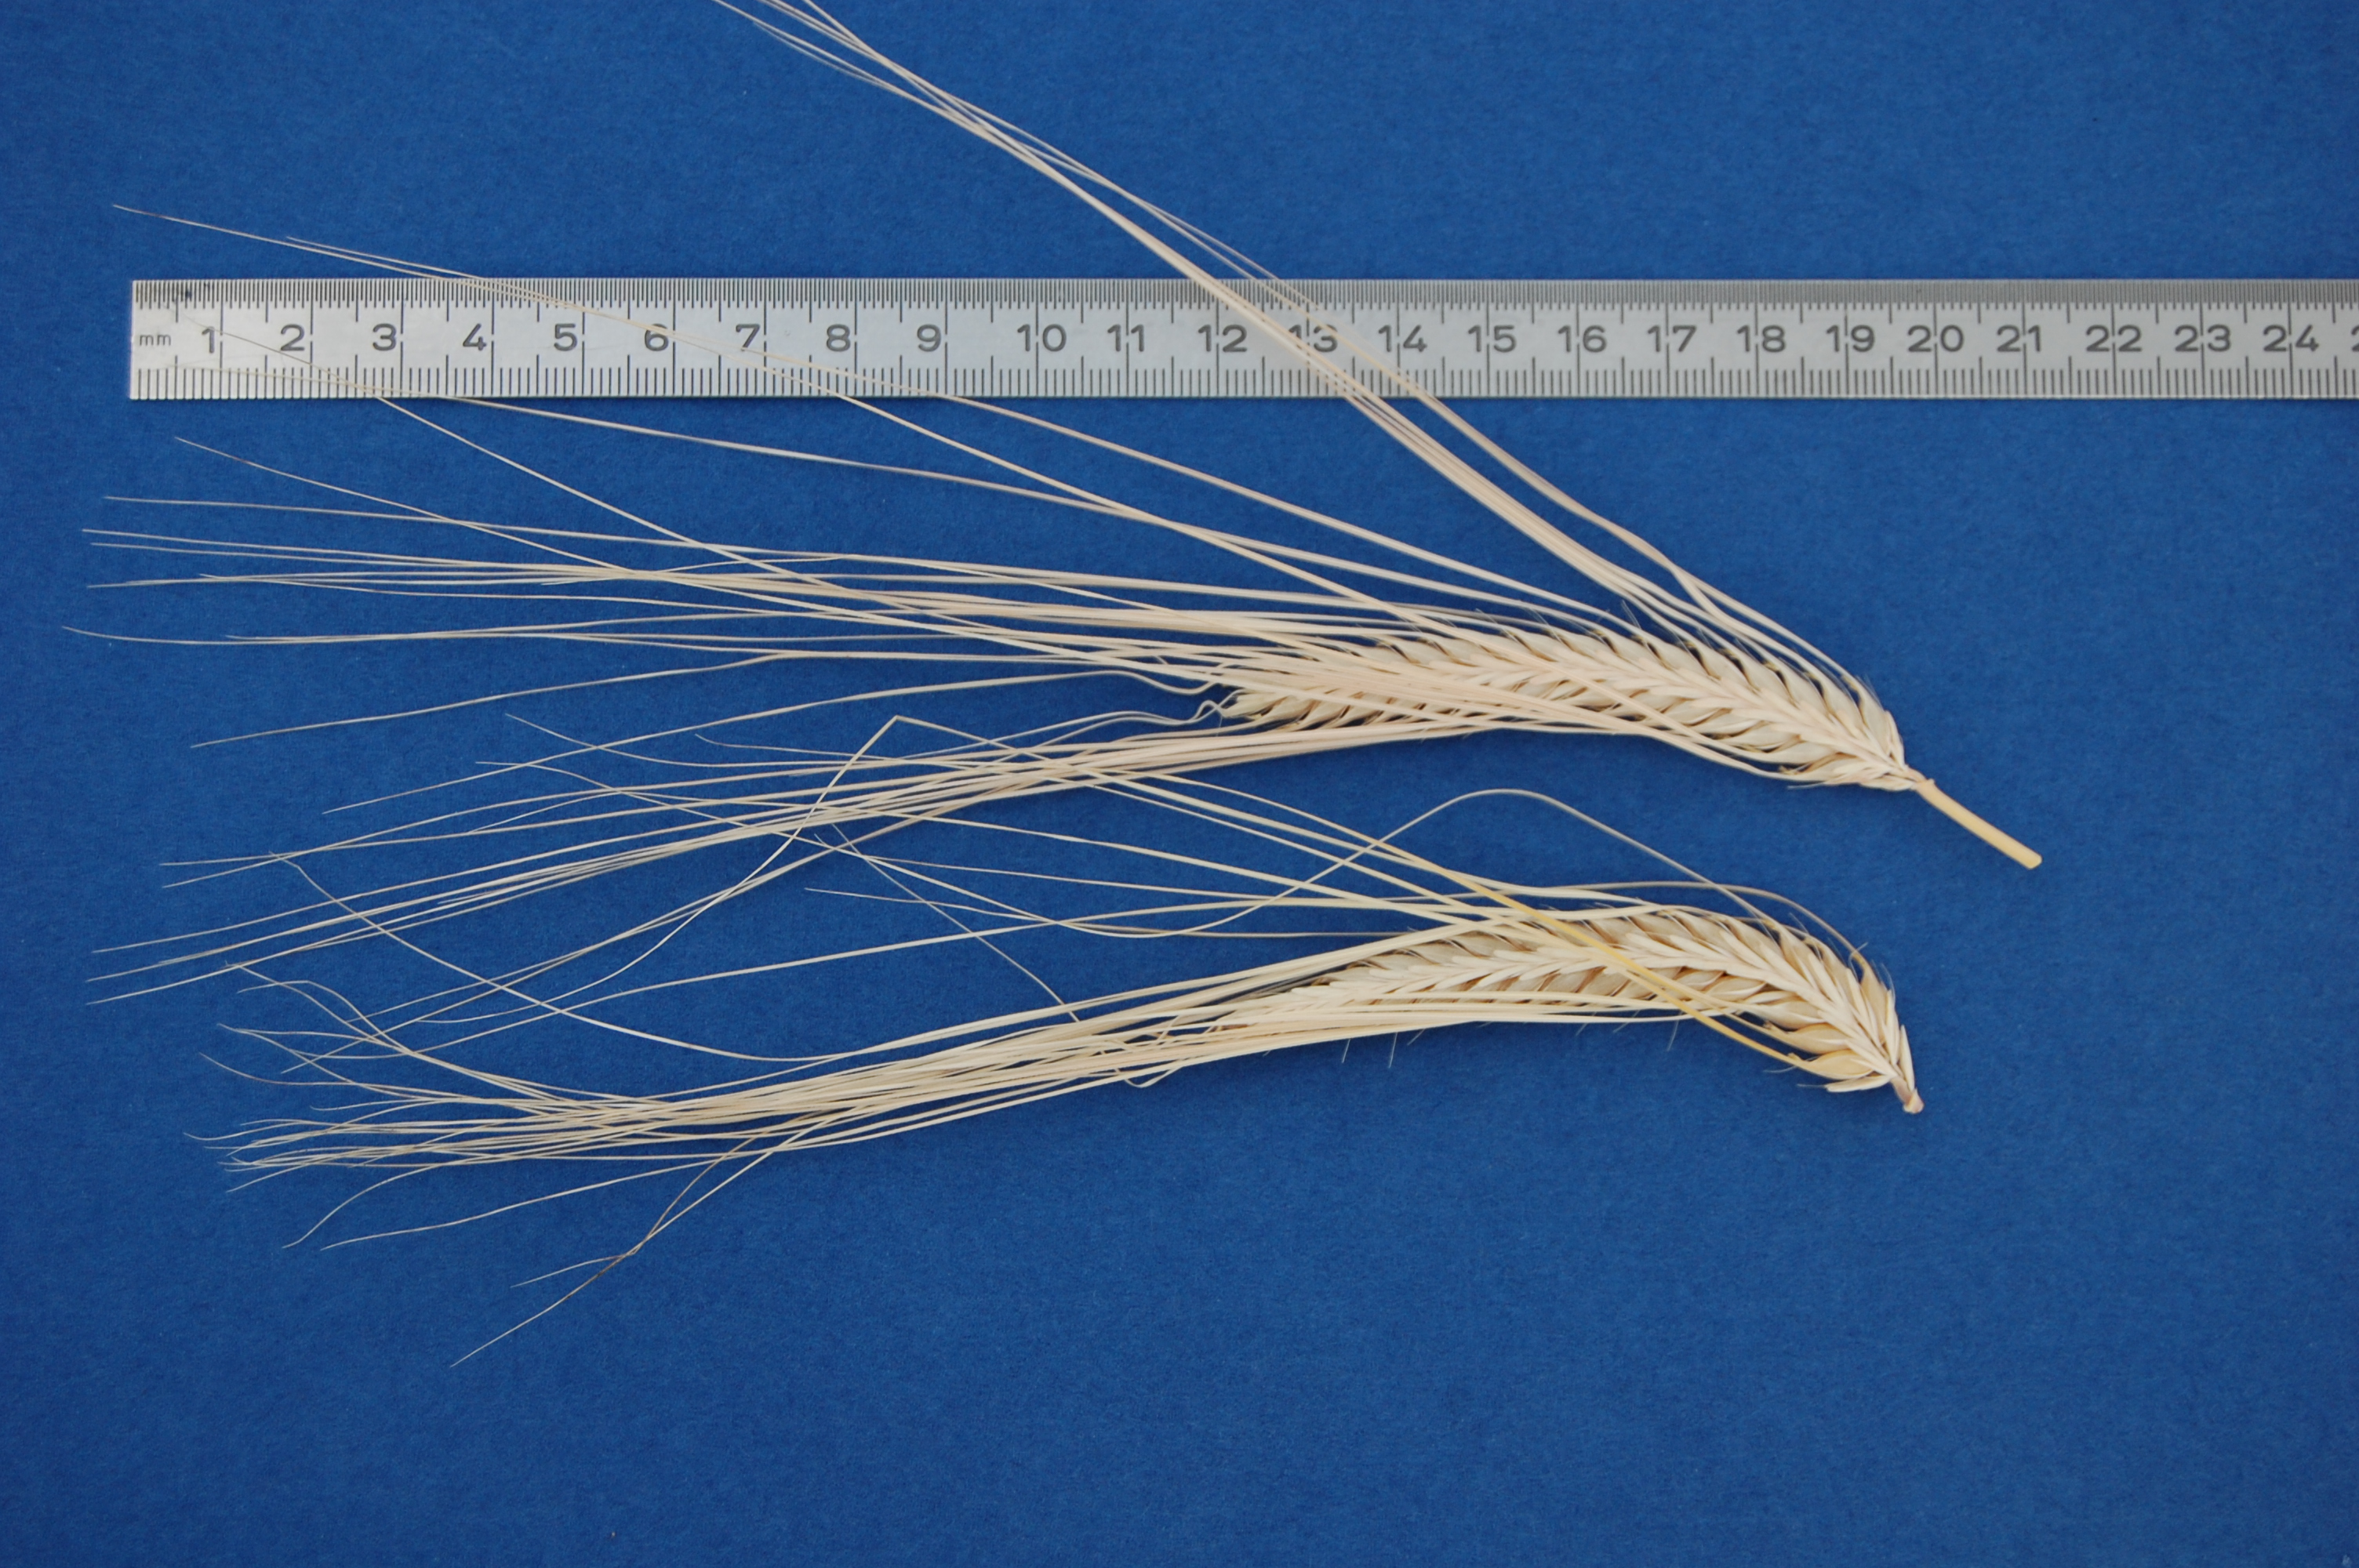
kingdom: Plantae
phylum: Tracheophyta
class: Liliopsida
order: Poales
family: Poaceae
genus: Hordeum
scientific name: Hordeum vulgare
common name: Common barley
